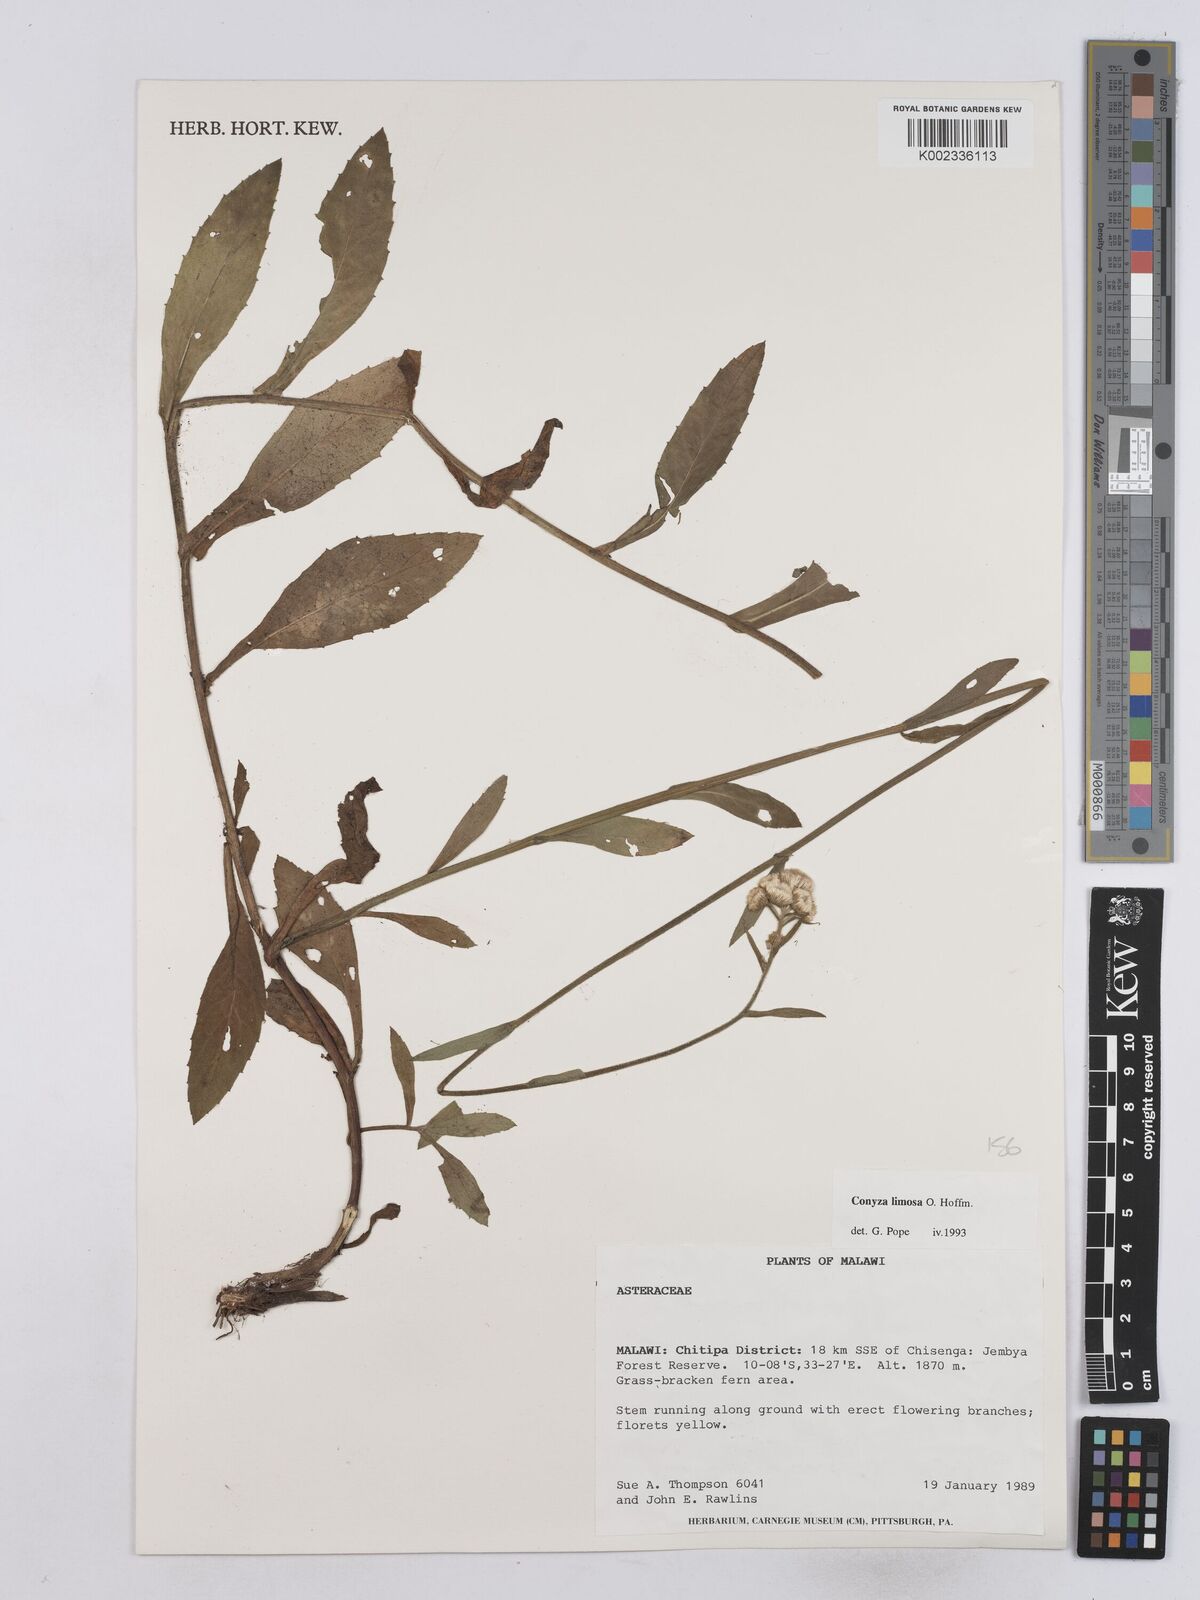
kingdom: Plantae
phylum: Tracheophyta
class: Magnoliopsida
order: Asterales
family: Asteraceae
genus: Conyza
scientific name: Conyza limosa
